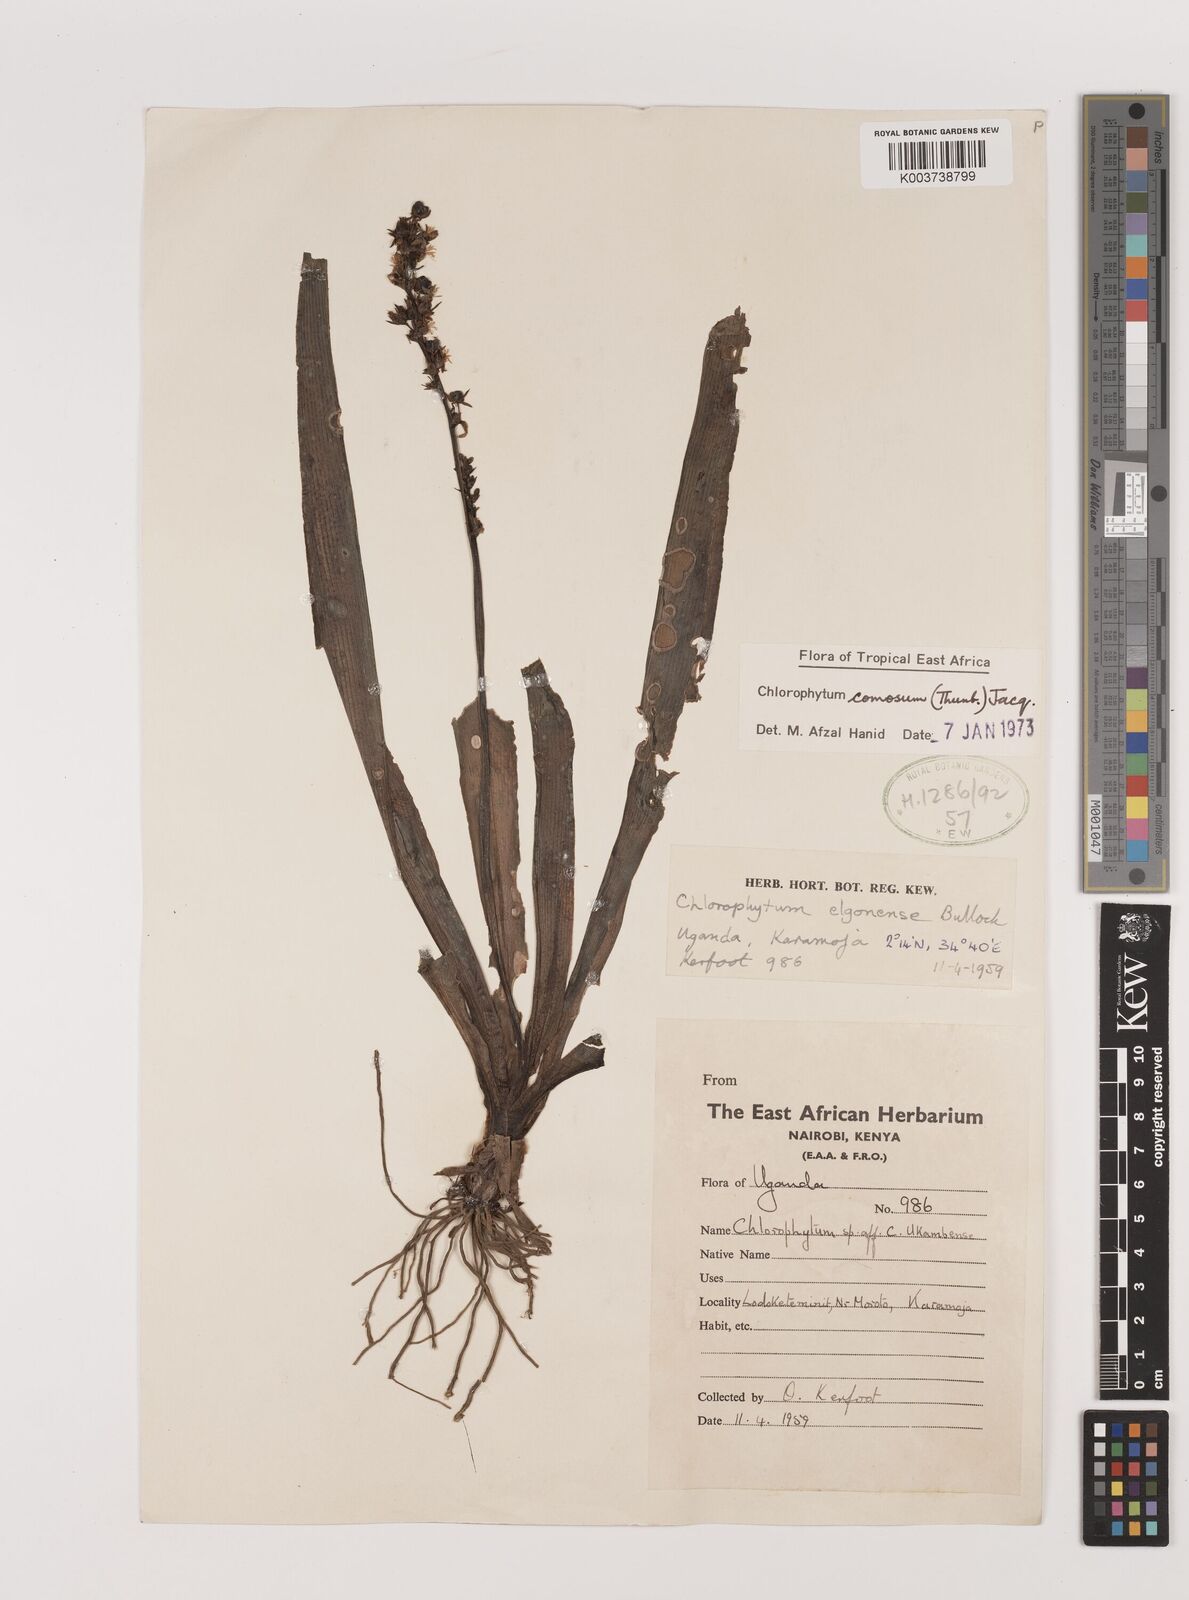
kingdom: Plantae
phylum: Tracheophyta
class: Liliopsida
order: Asparagales
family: Asparagaceae
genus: Chlorophytum
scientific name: Chlorophytum comosum
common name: Spider plant
